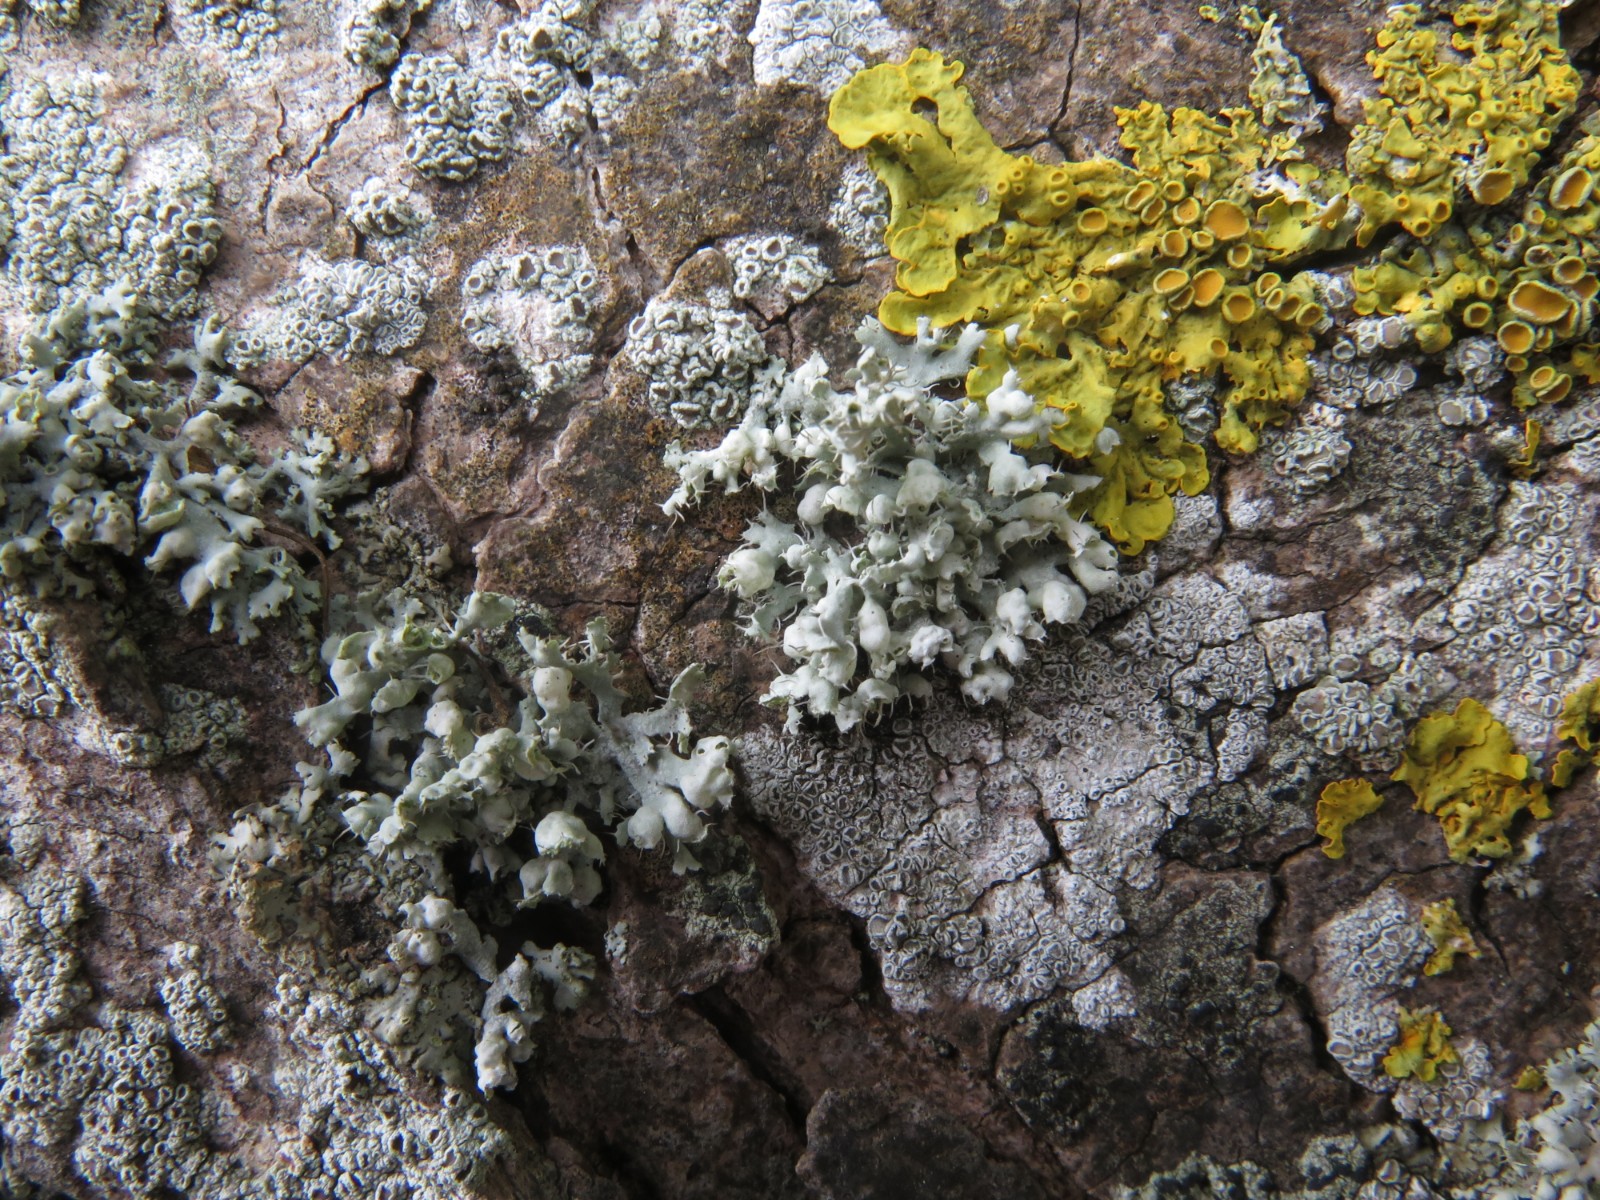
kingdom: Fungi
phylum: Ascomycota
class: Lecanoromycetes
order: Caliciales
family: Physciaceae
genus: Physcia
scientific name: Physcia adscendens
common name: hætte-rosetlav
